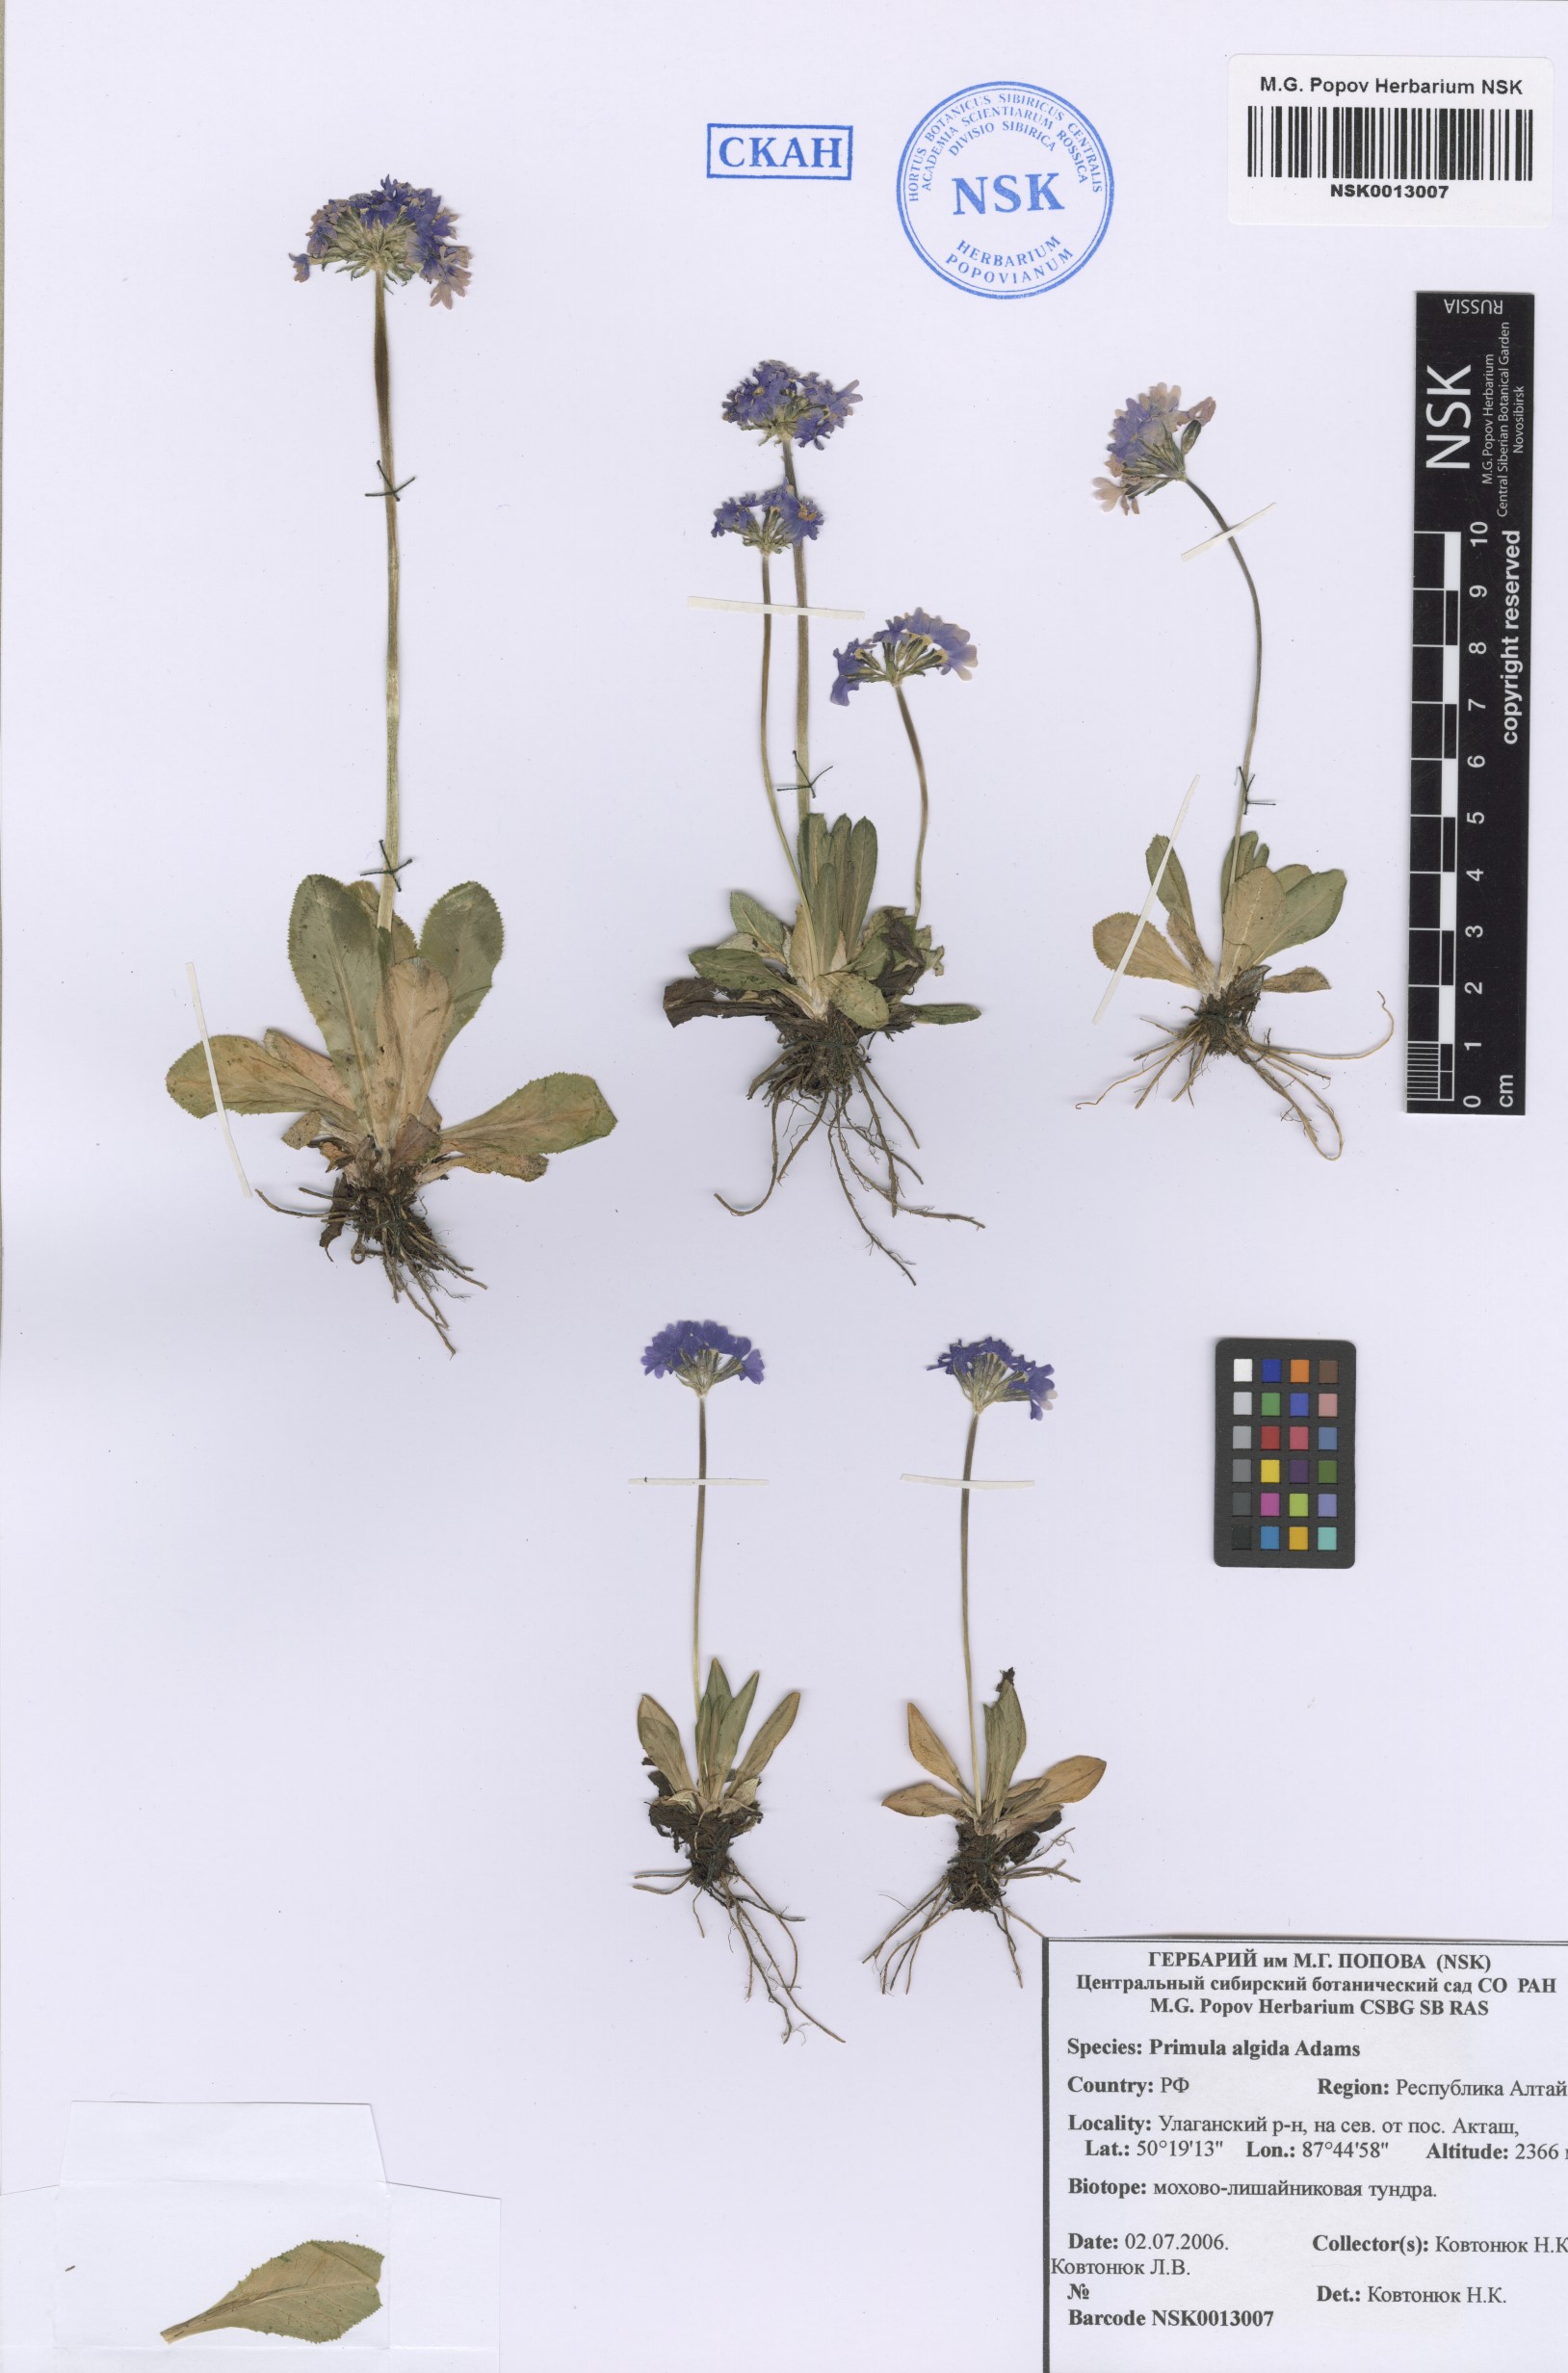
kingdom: Plantae
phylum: Tracheophyta
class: Magnoliopsida
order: Ericales
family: Primulaceae
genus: Primula
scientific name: Primula algida
